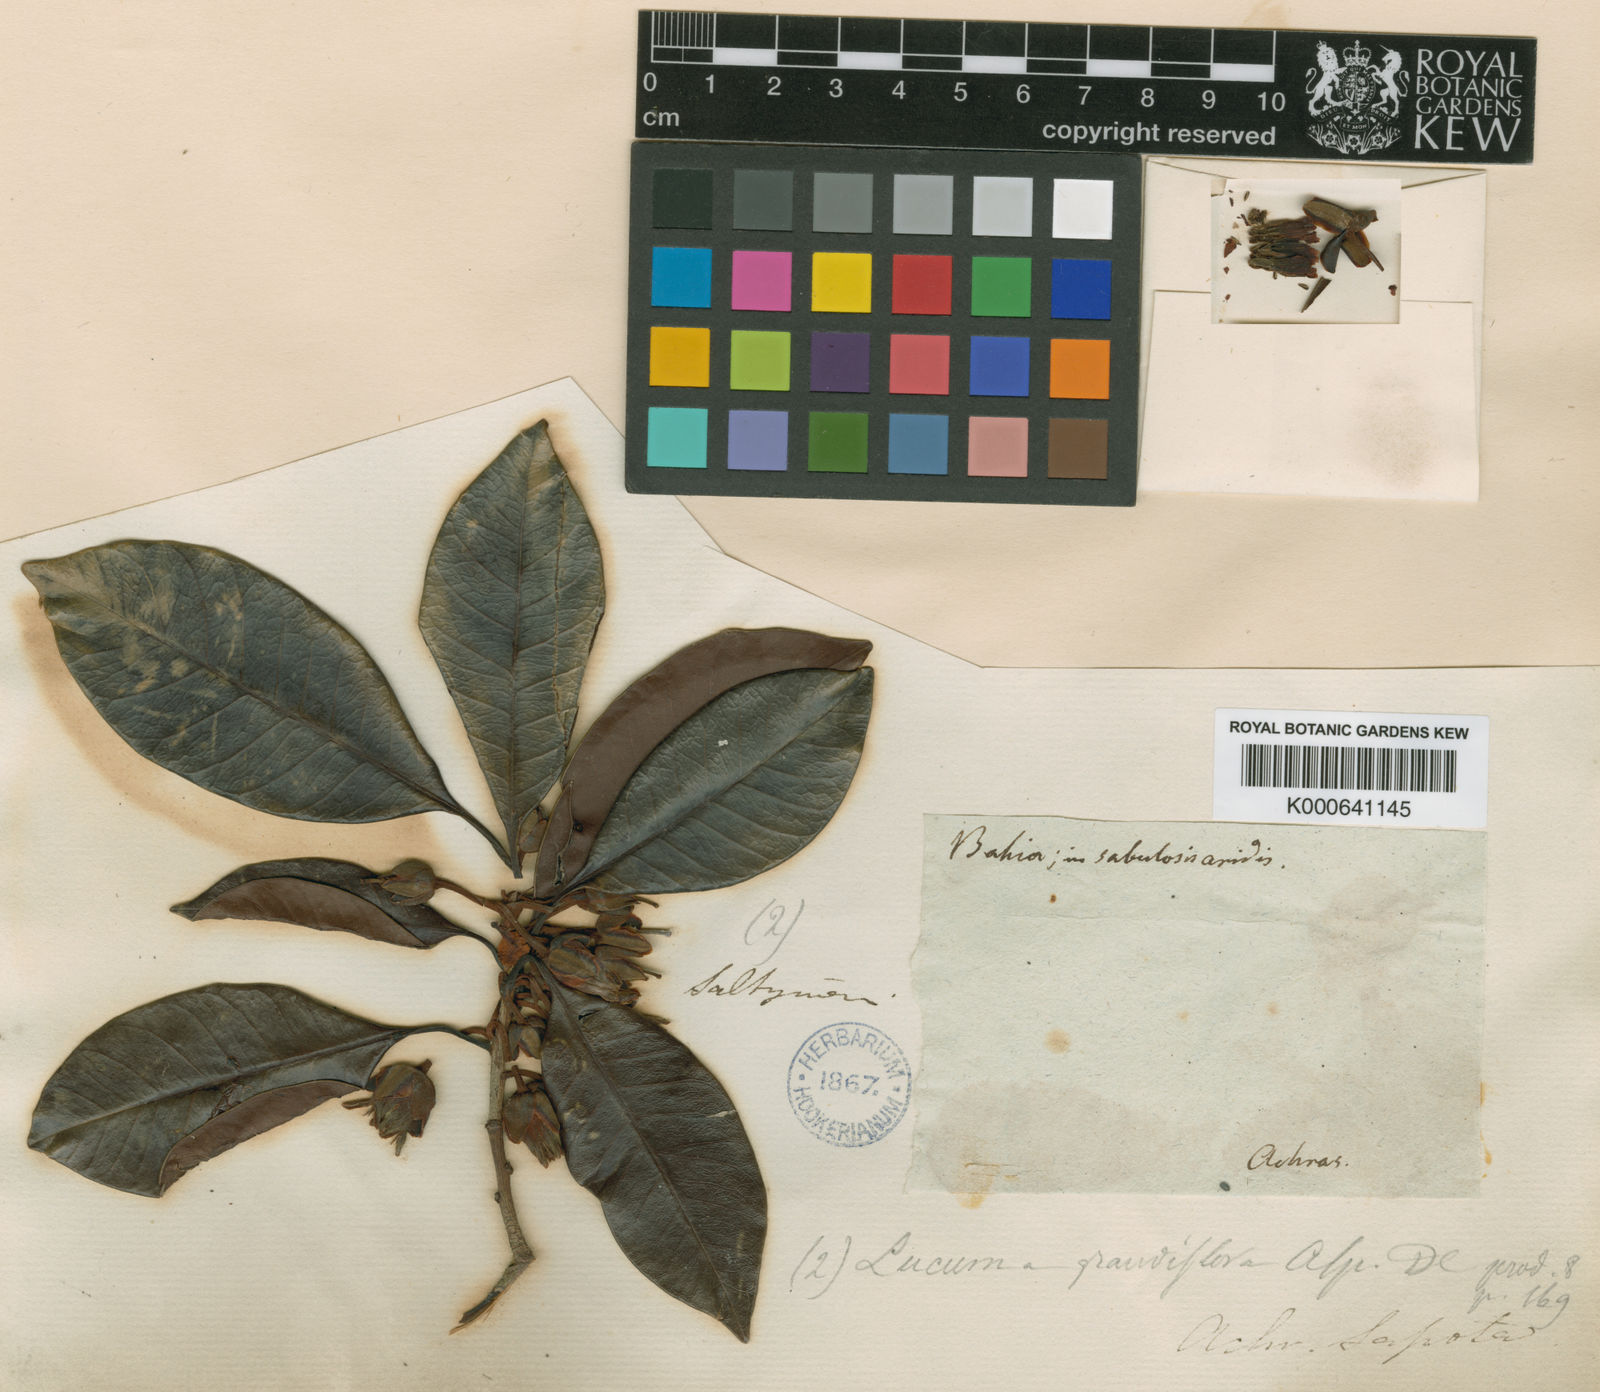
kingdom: Plantae
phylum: Tracheophyta
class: Magnoliopsida
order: Ericales
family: Sapotaceae
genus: Pouteria
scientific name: Pouteria grandiflora
